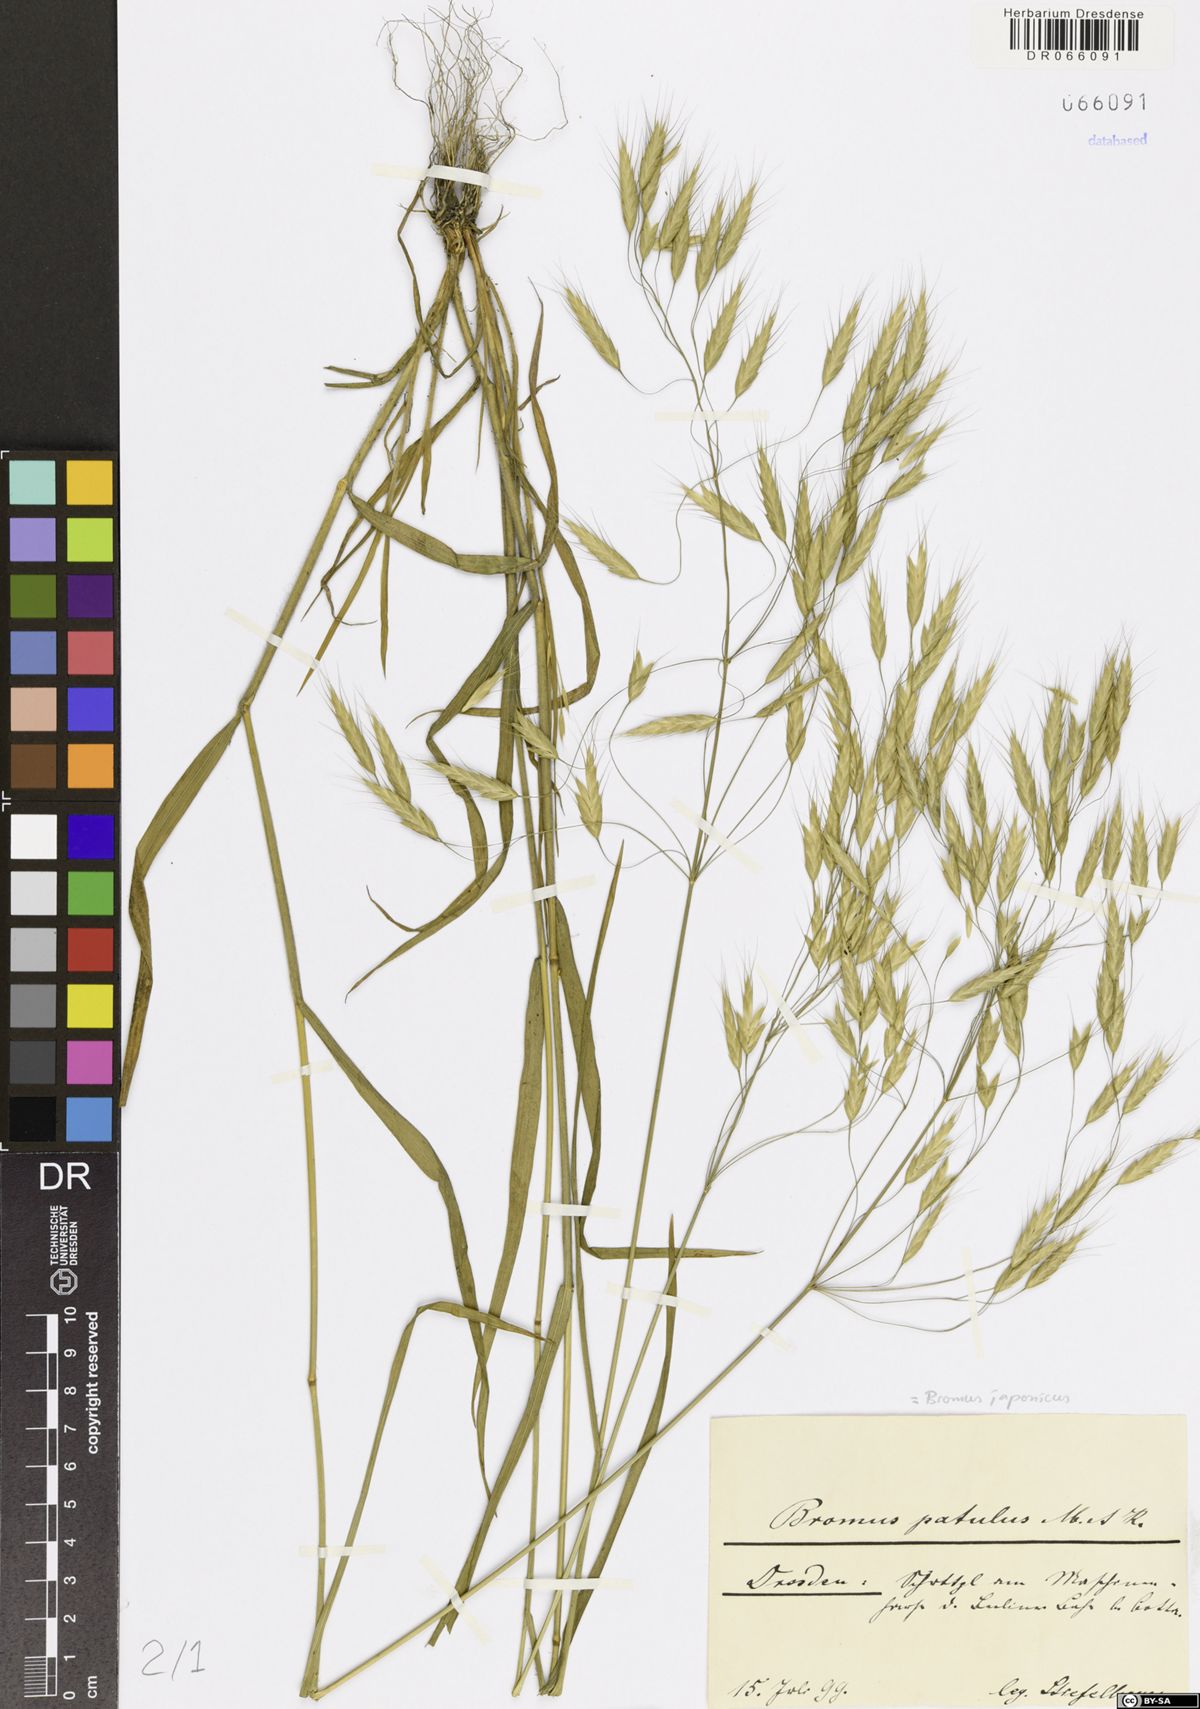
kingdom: Plantae
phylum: Tracheophyta
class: Liliopsida
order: Poales
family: Poaceae
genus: Bromus
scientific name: Bromus japonicus
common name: Japanese brome
